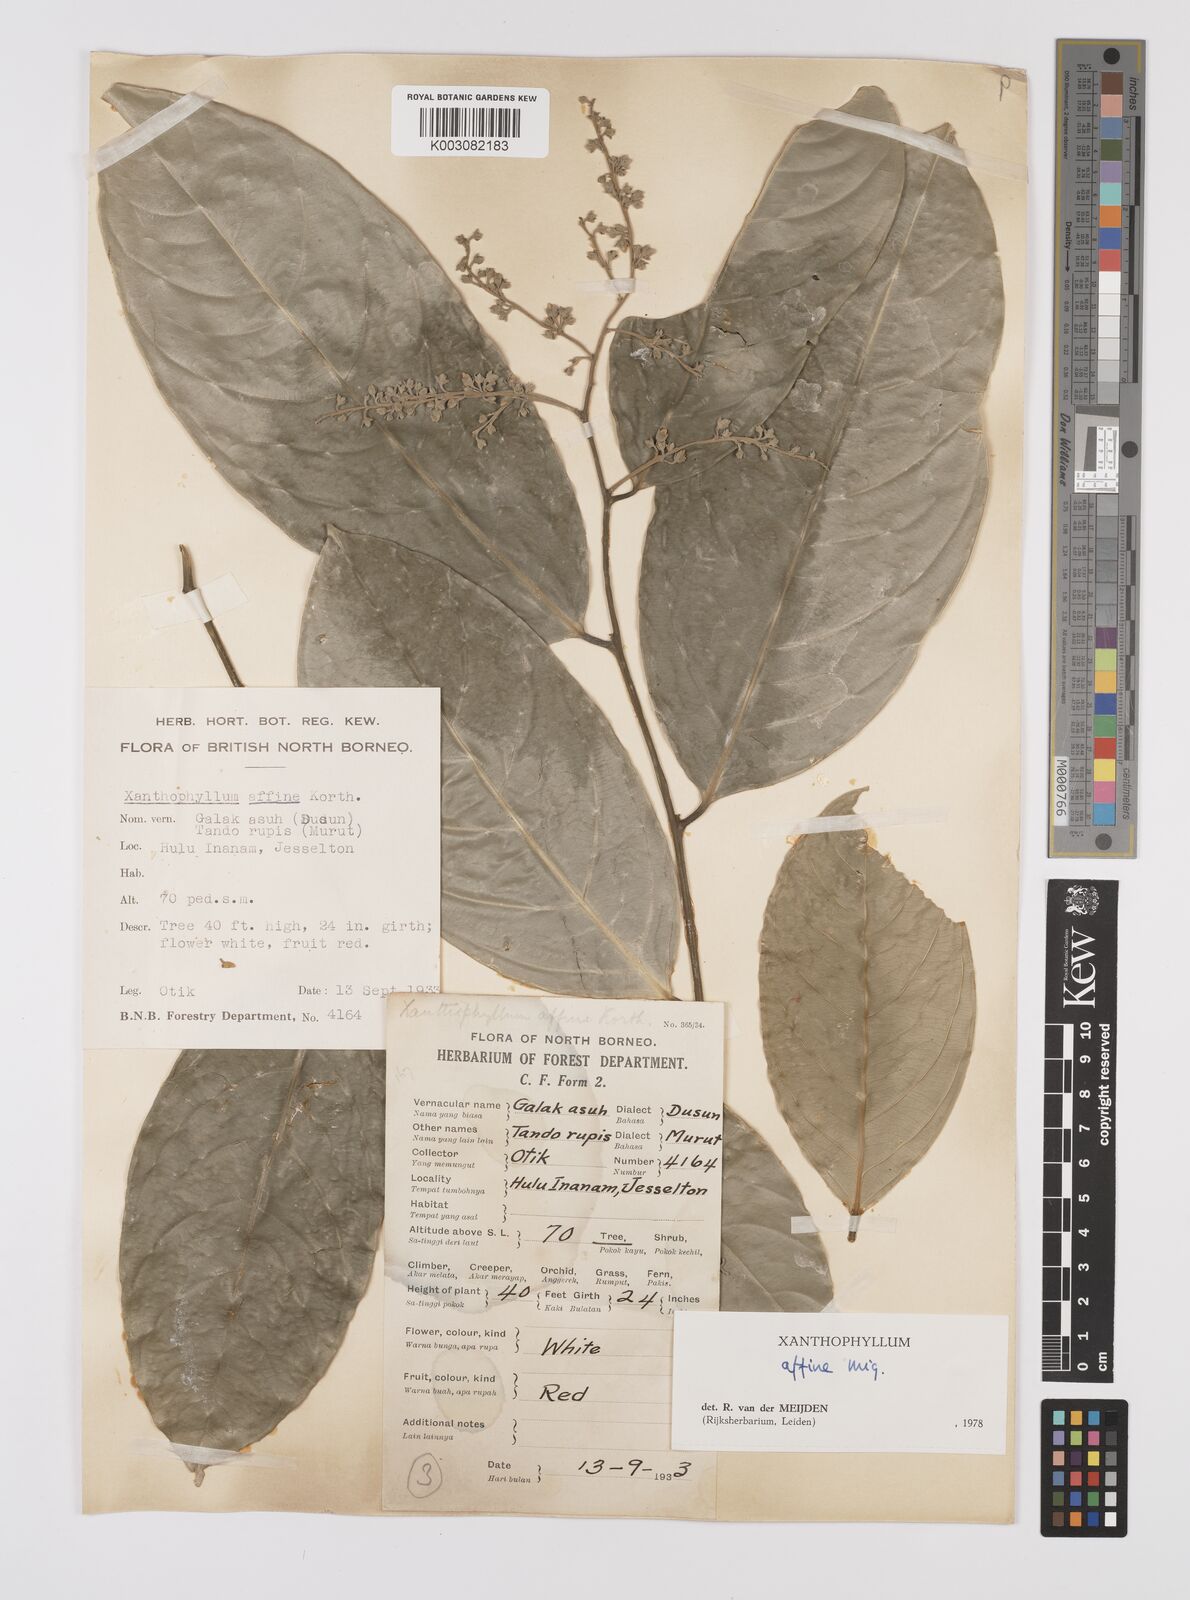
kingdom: Plantae
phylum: Tracheophyta
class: Magnoliopsida
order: Fabales
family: Polygalaceae
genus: Xanthophyllum
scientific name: Xanthophyllum flavescens
